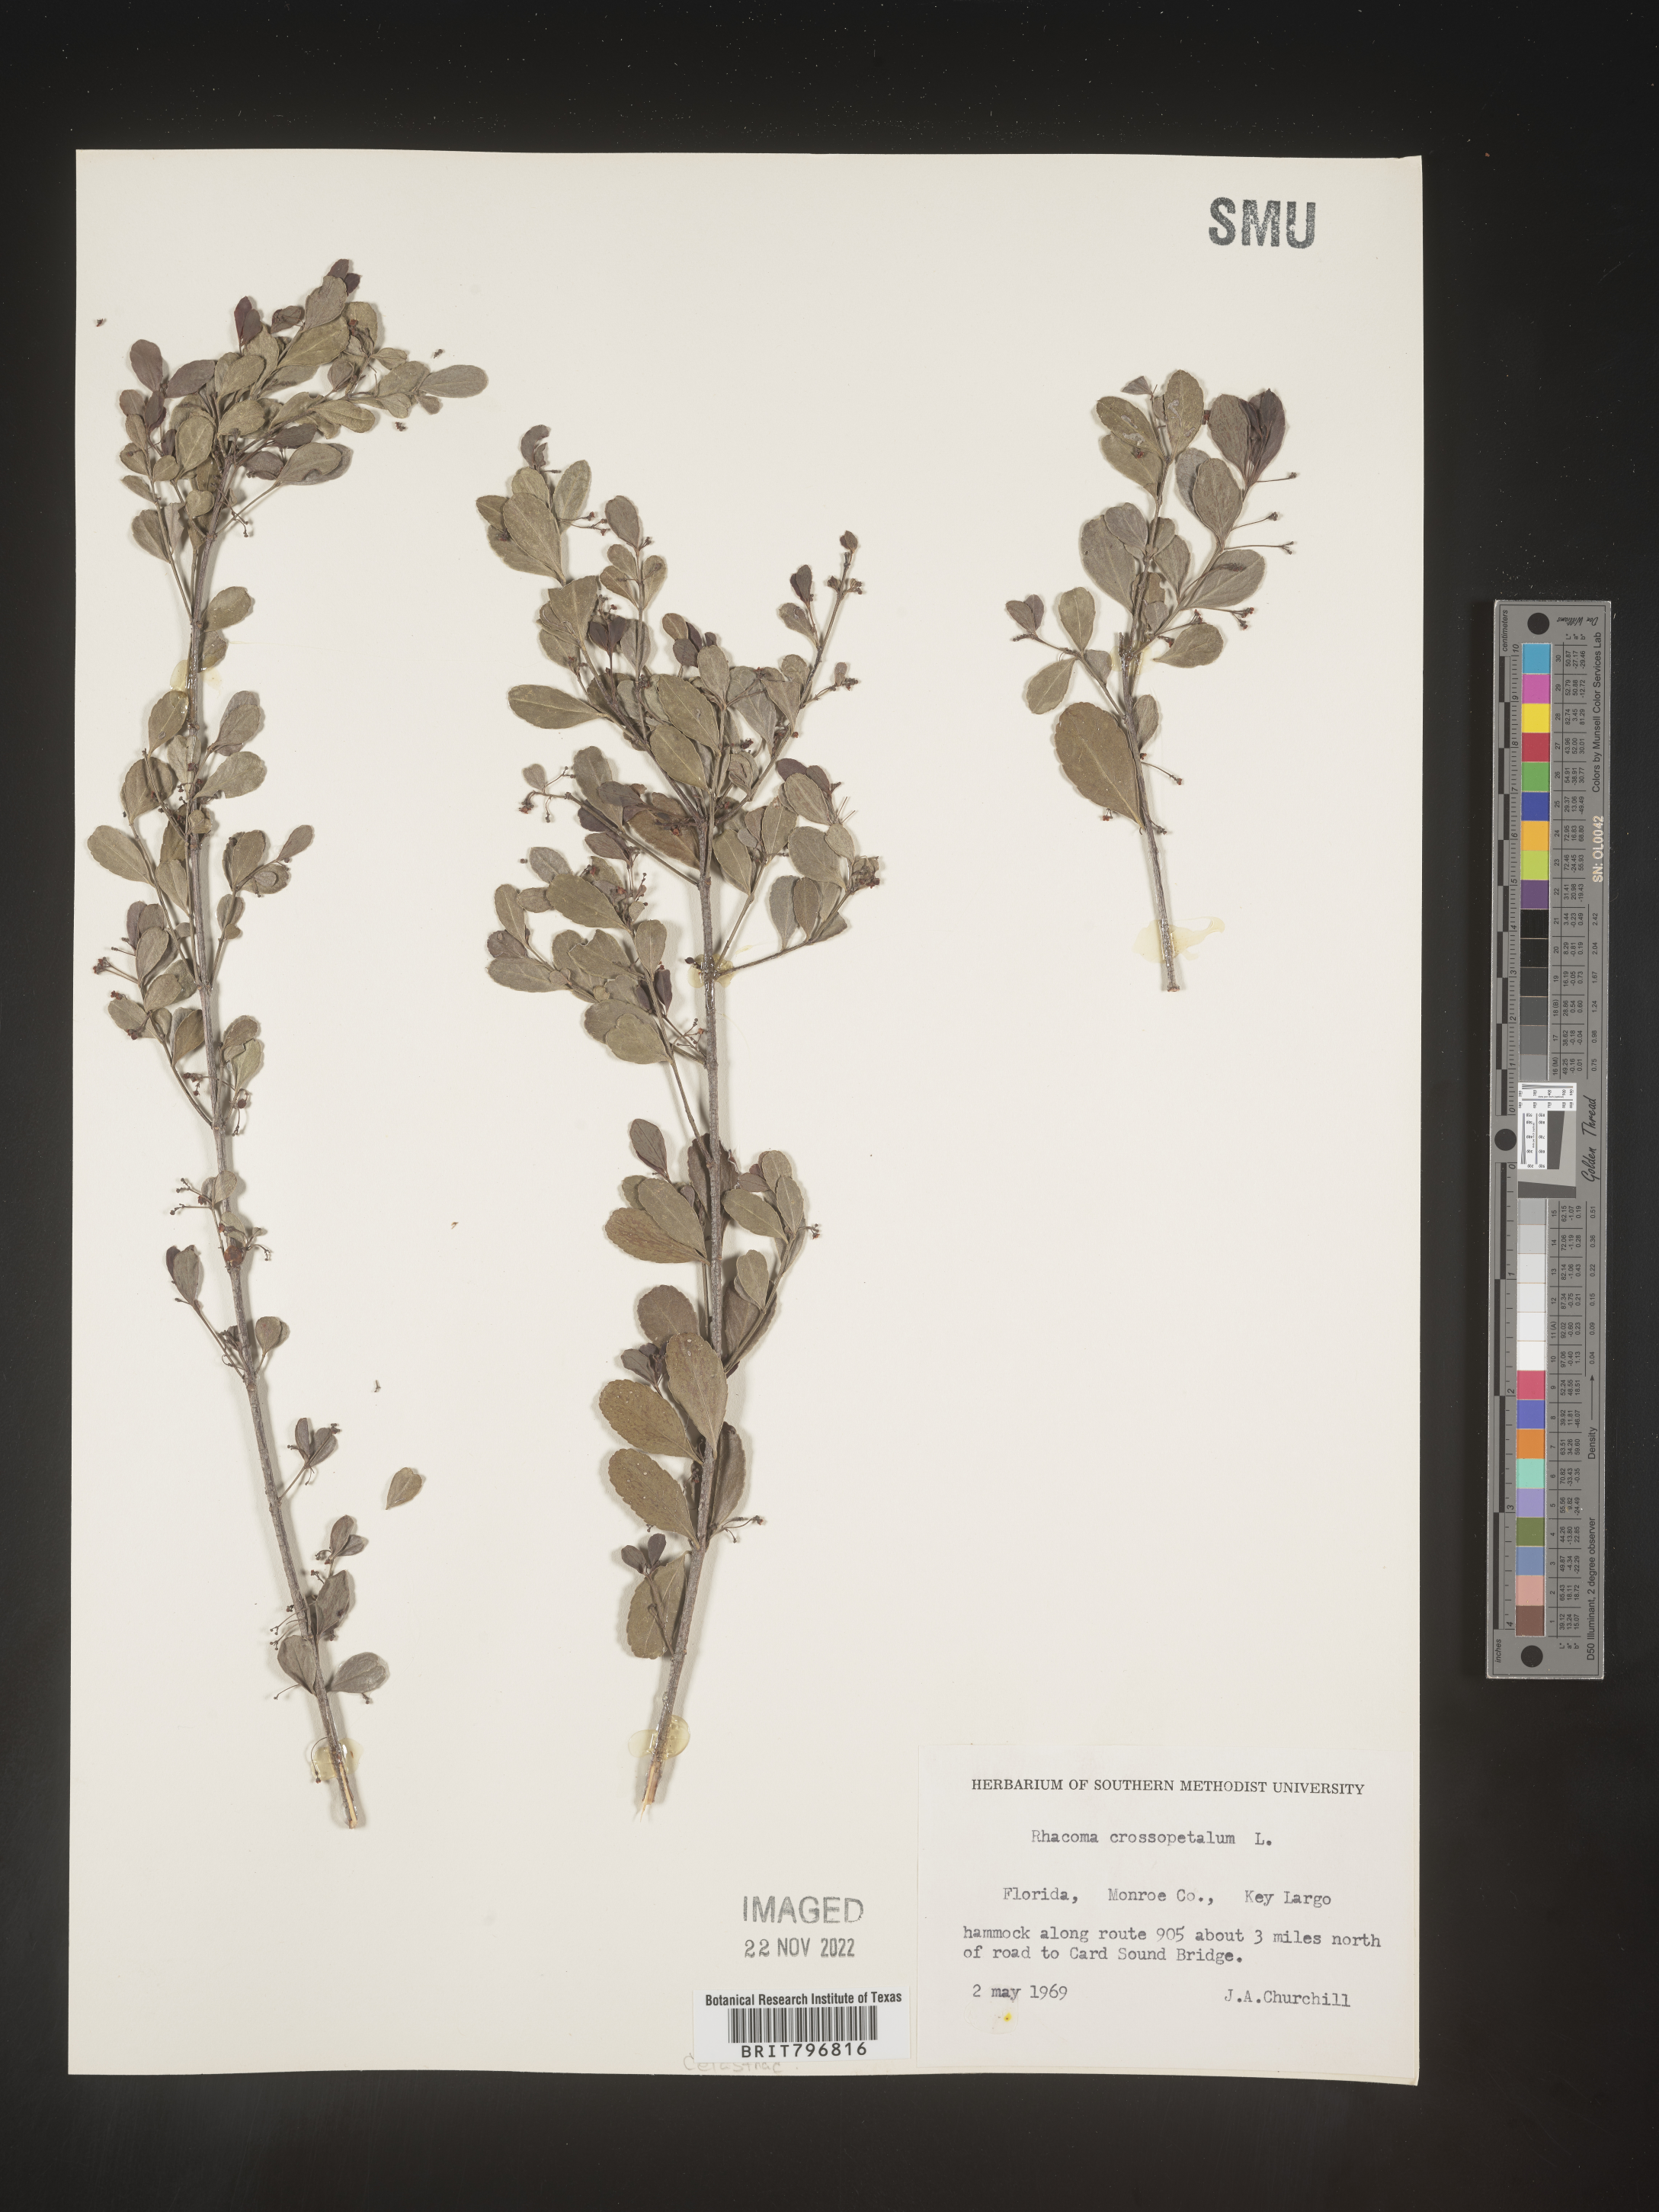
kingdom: Plantae
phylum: Tracheophyta
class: Magnoliopsida
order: Celastrales
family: Celastraceae
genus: Crossopetalum
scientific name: Crossopetalum
